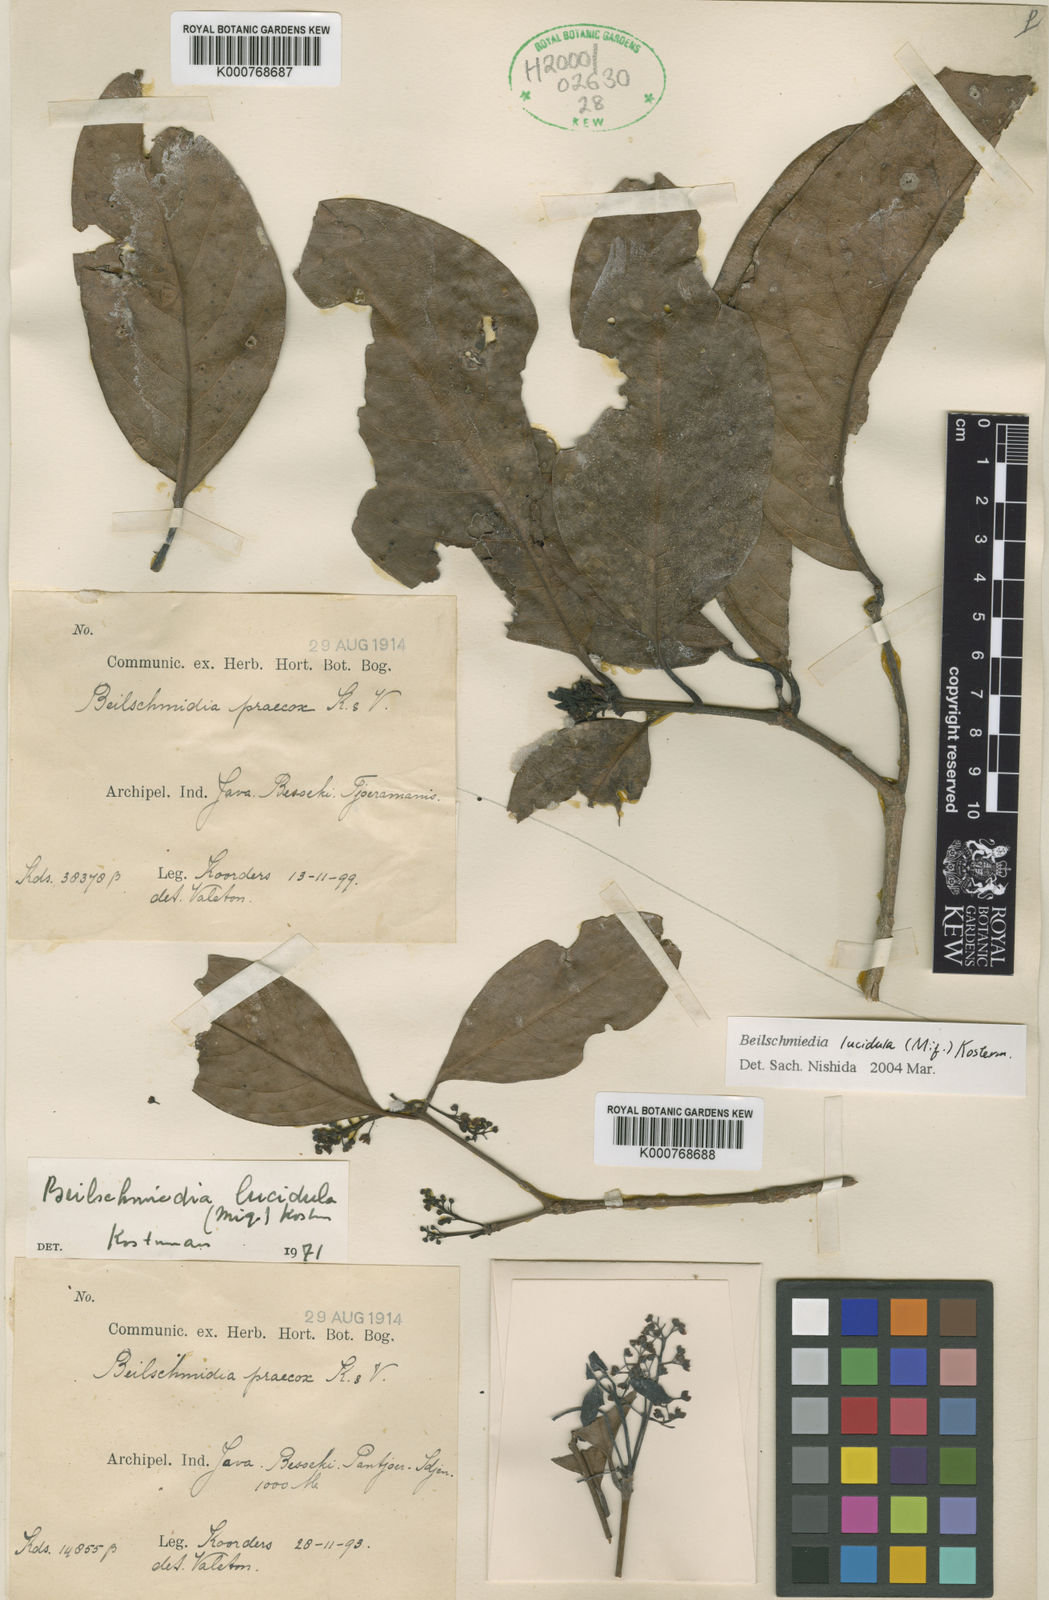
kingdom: Plantae
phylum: Tracheophyta
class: Magnoliopsida
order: Laurales
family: Lauraceae
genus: Beilschmiedia
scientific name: Beilschmiedia assamica
